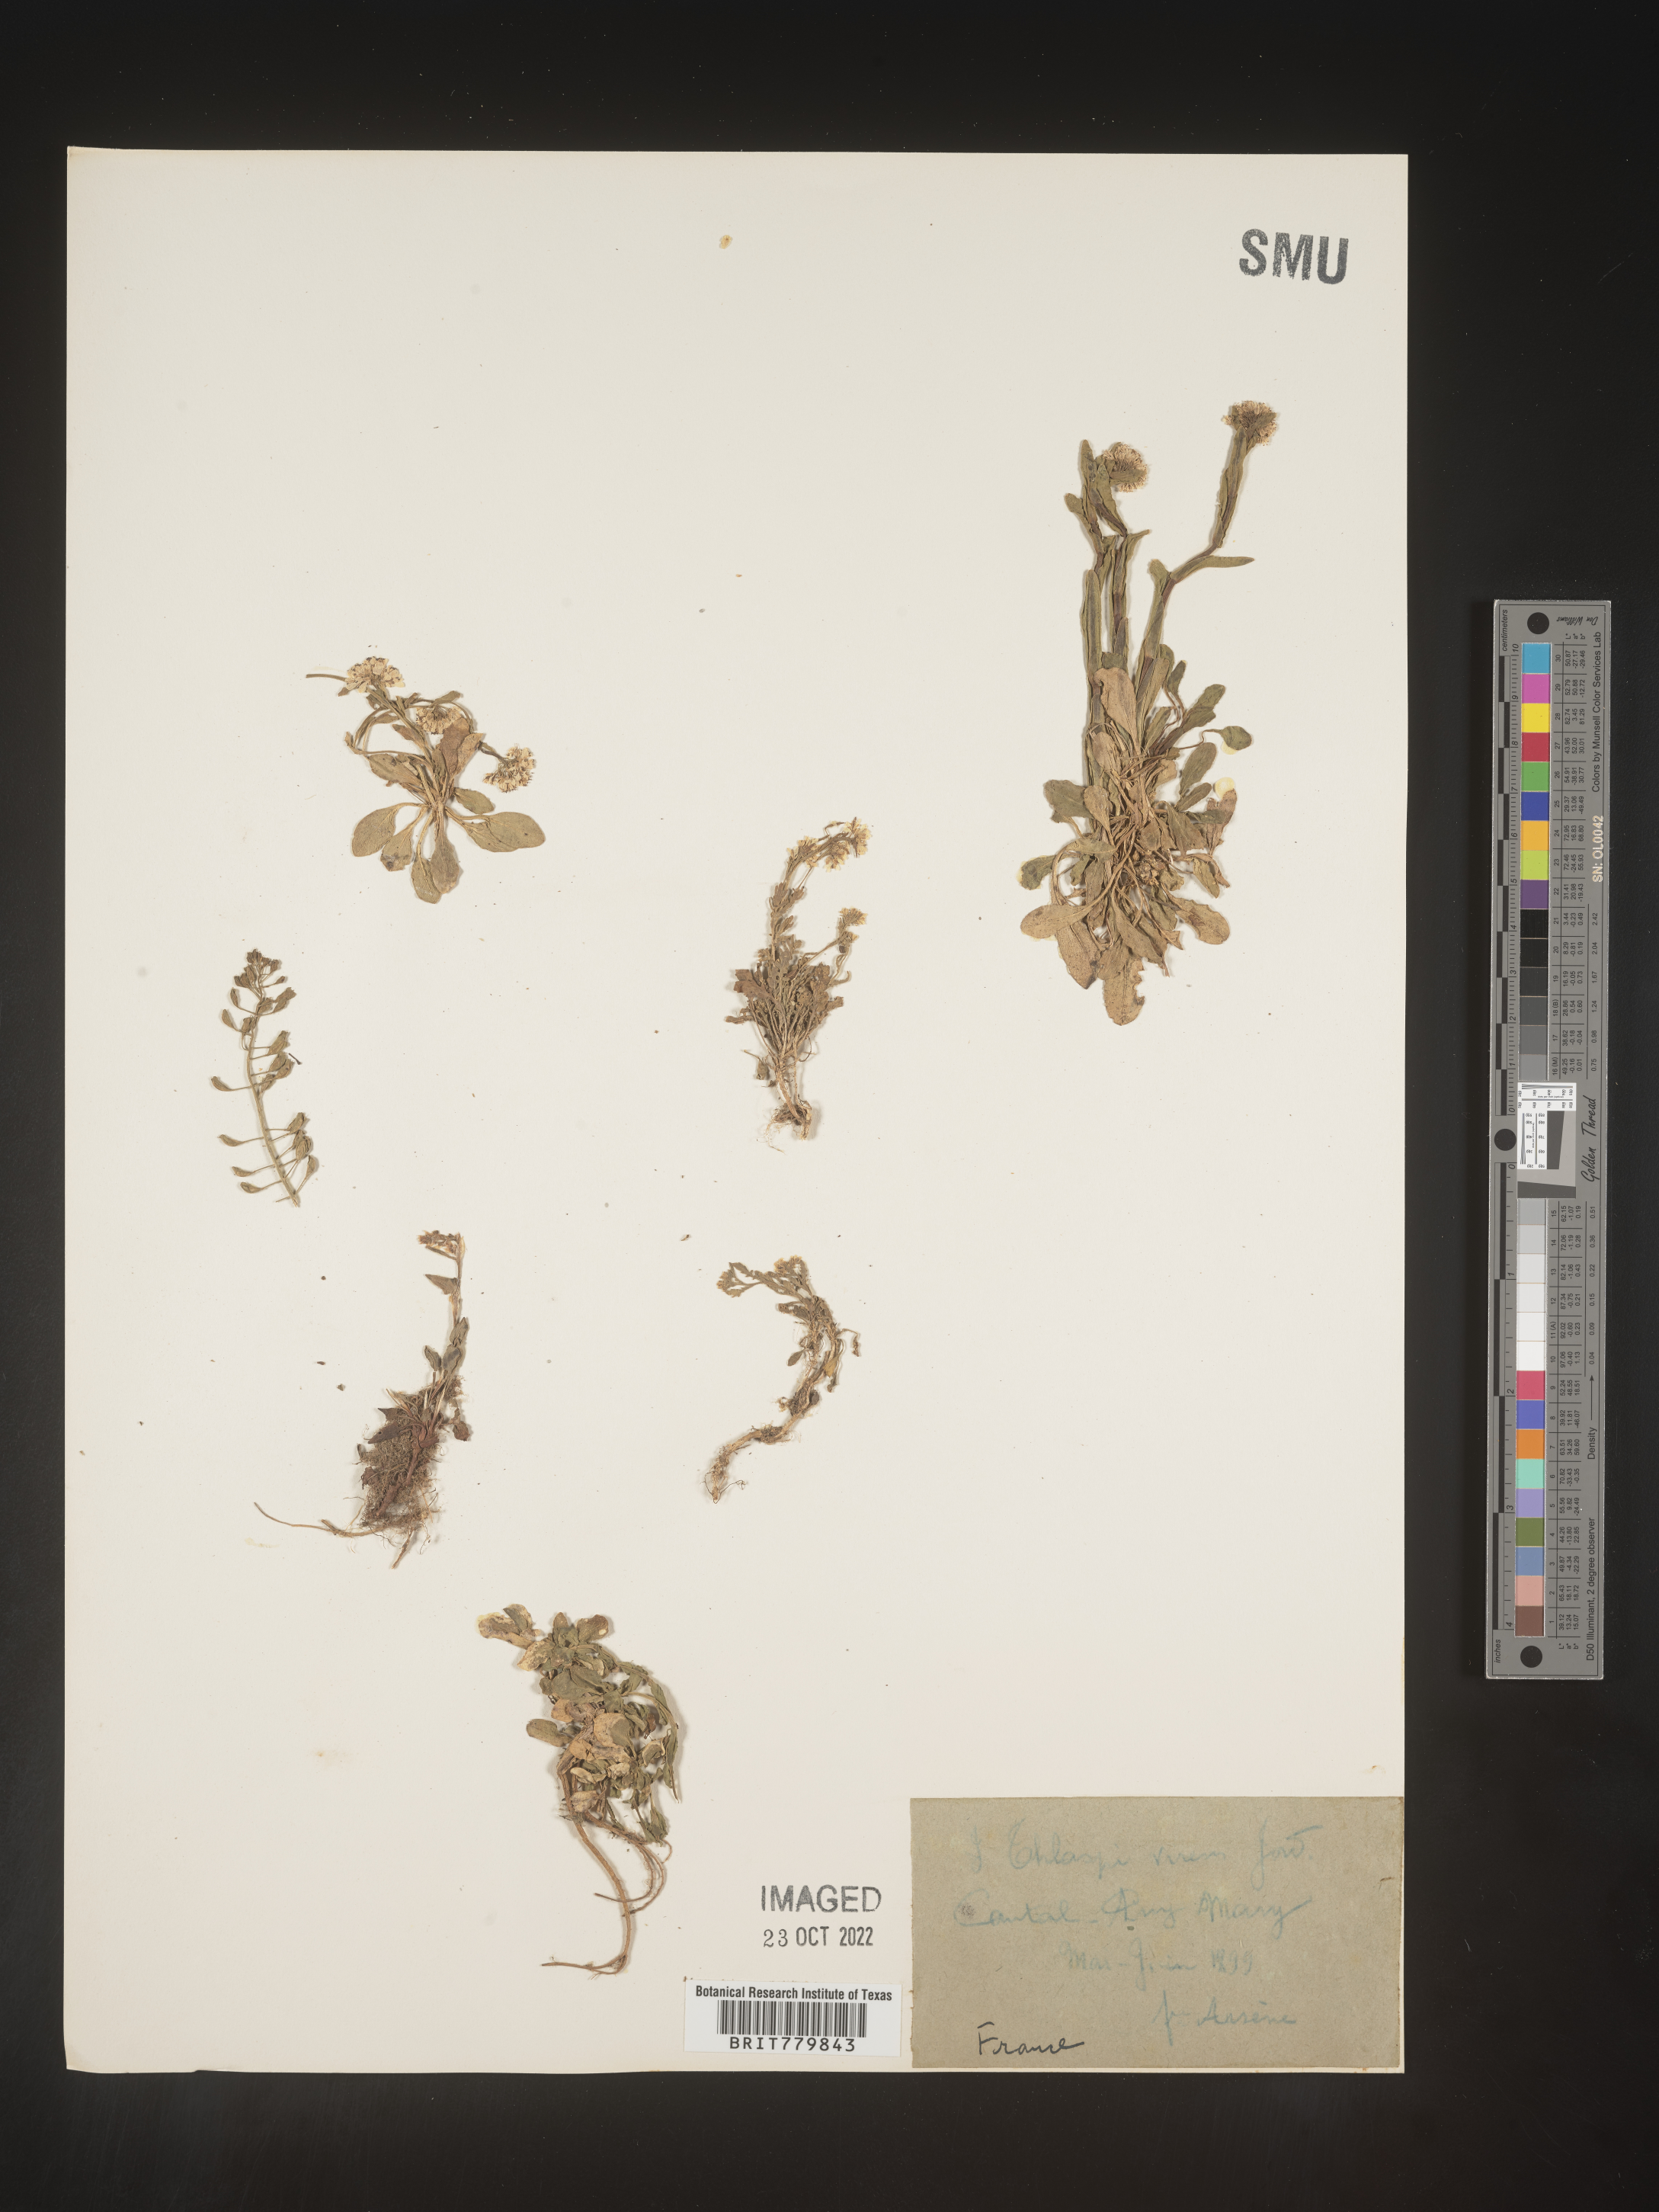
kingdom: Plantae
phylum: Tracheophyta
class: Magnoliopsida
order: Brassicales
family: Brassicaceae
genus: Thlaspi
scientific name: Thlaspi
